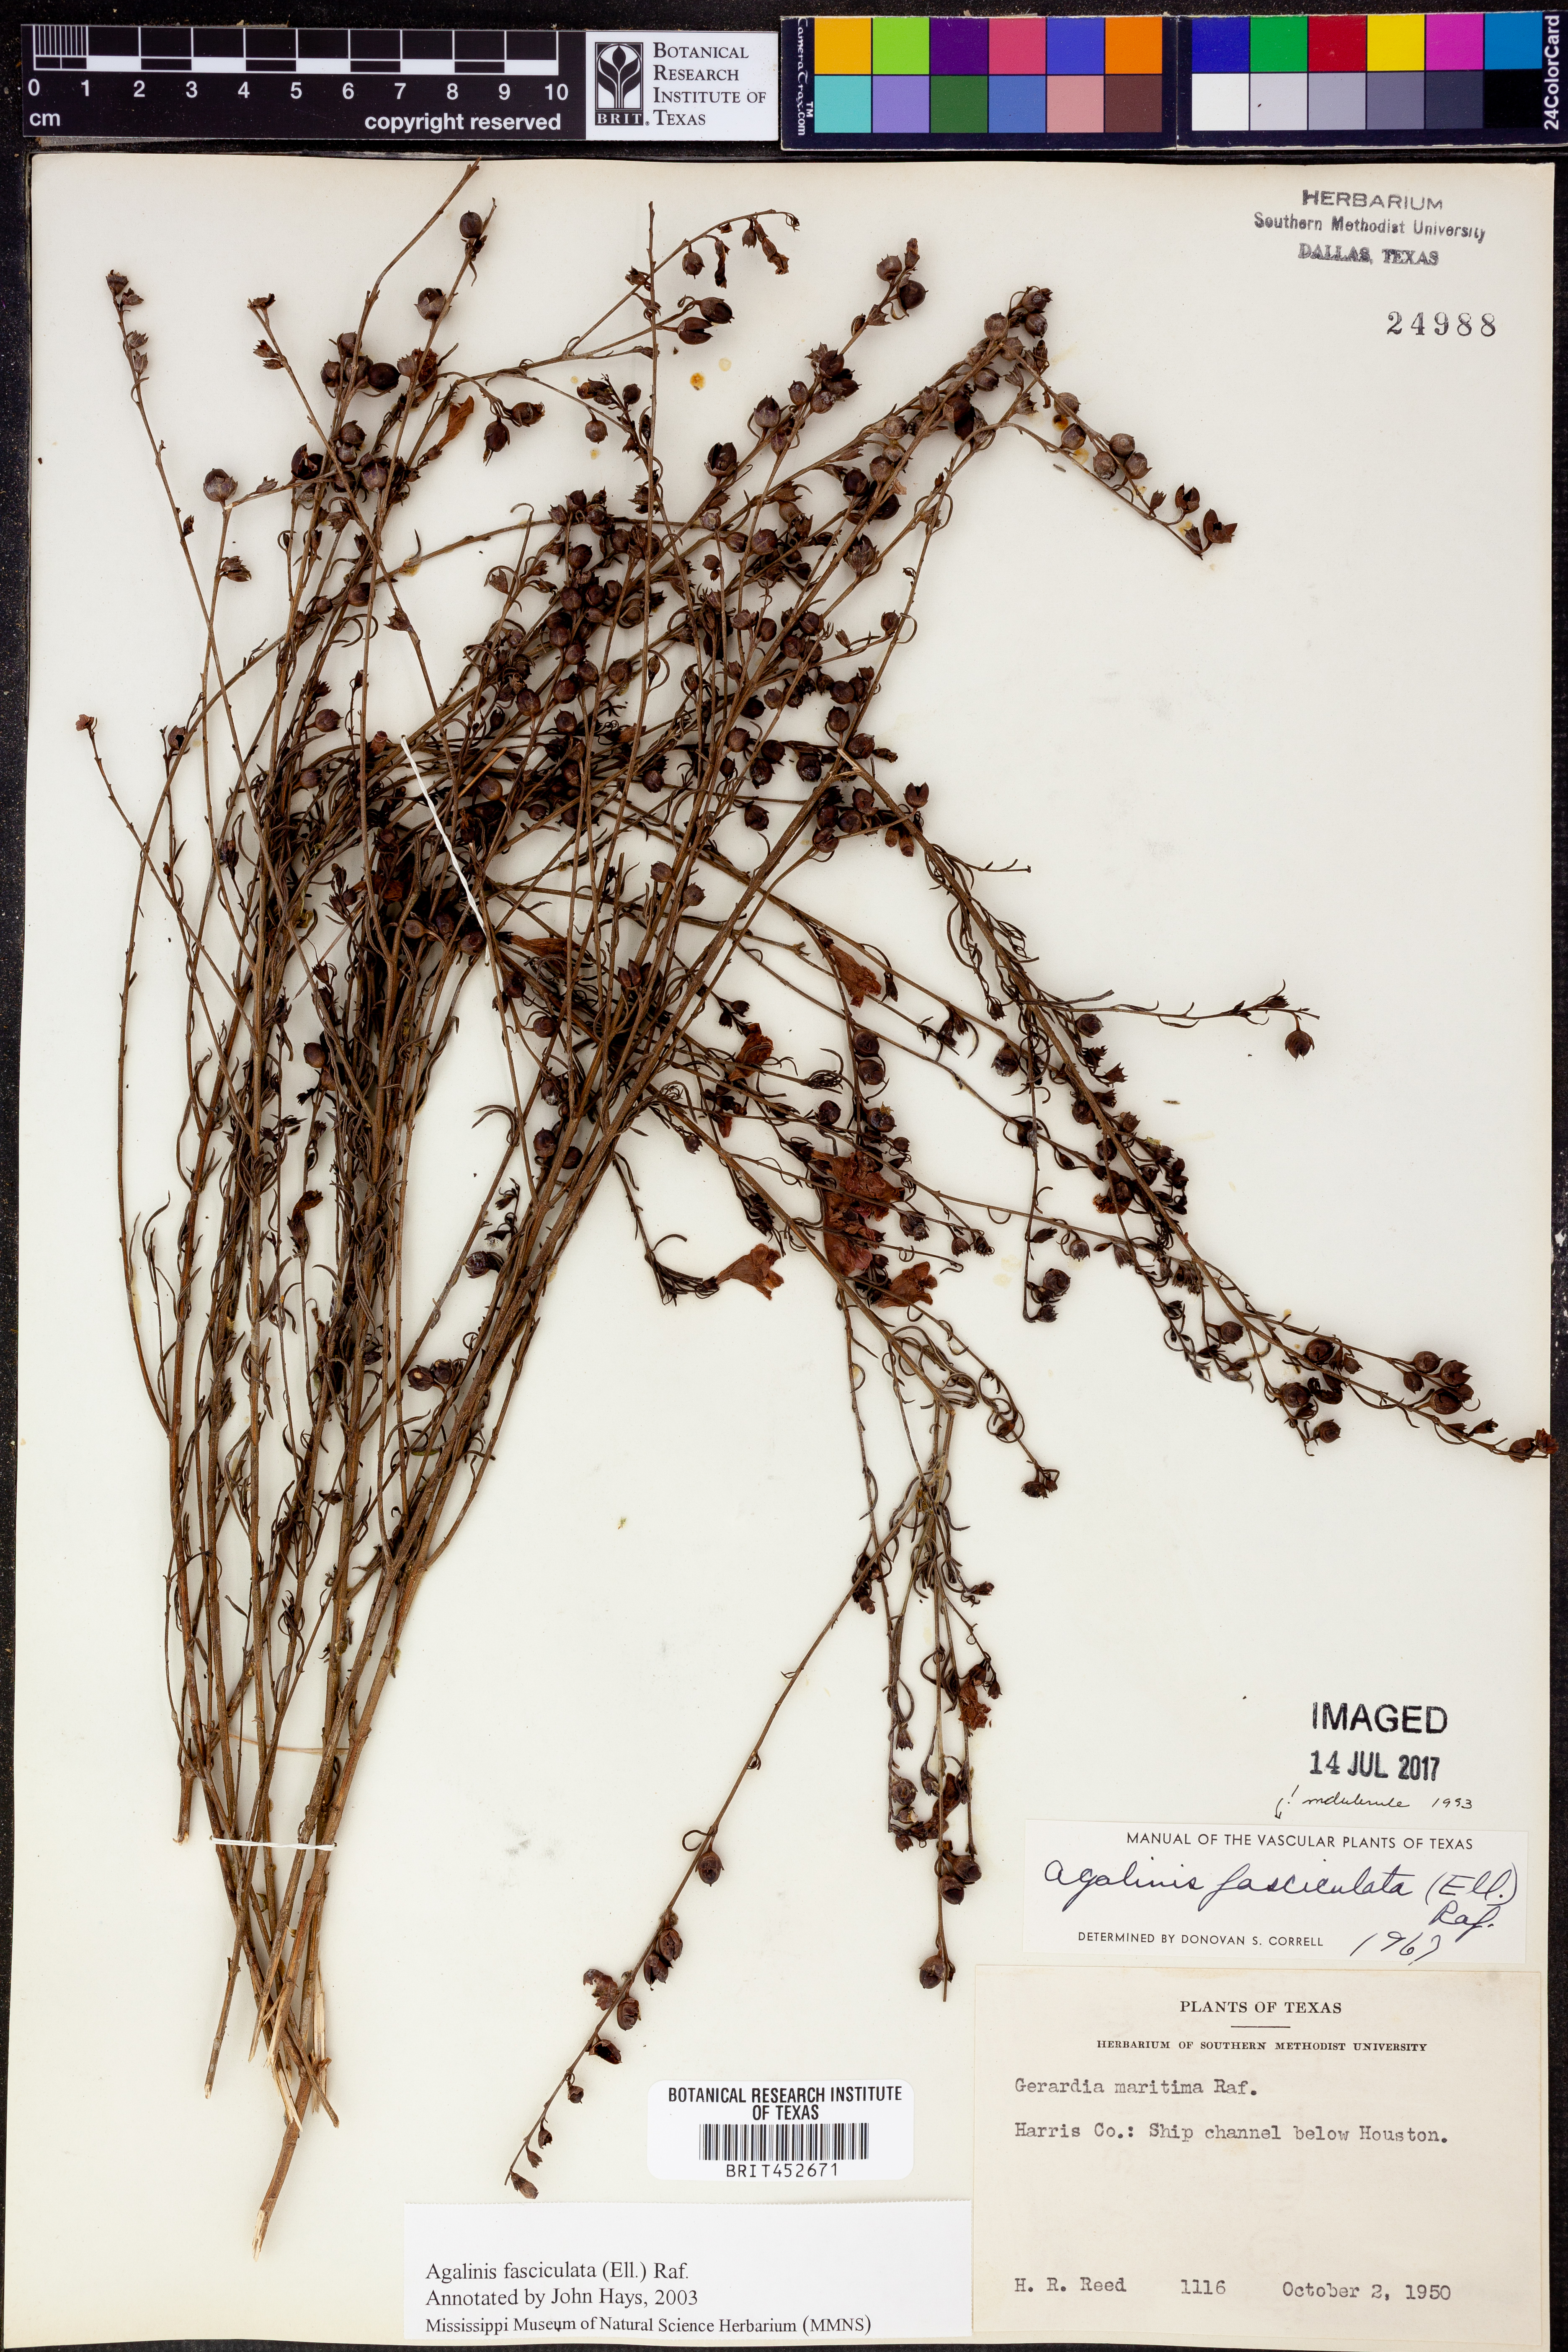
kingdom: Plantae
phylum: Tracheophyta
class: Magnoliopsida
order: Lamiales
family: Orobanchaceae
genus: Agalinis
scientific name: Agalinis fasciculata
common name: Beach false foxglove
